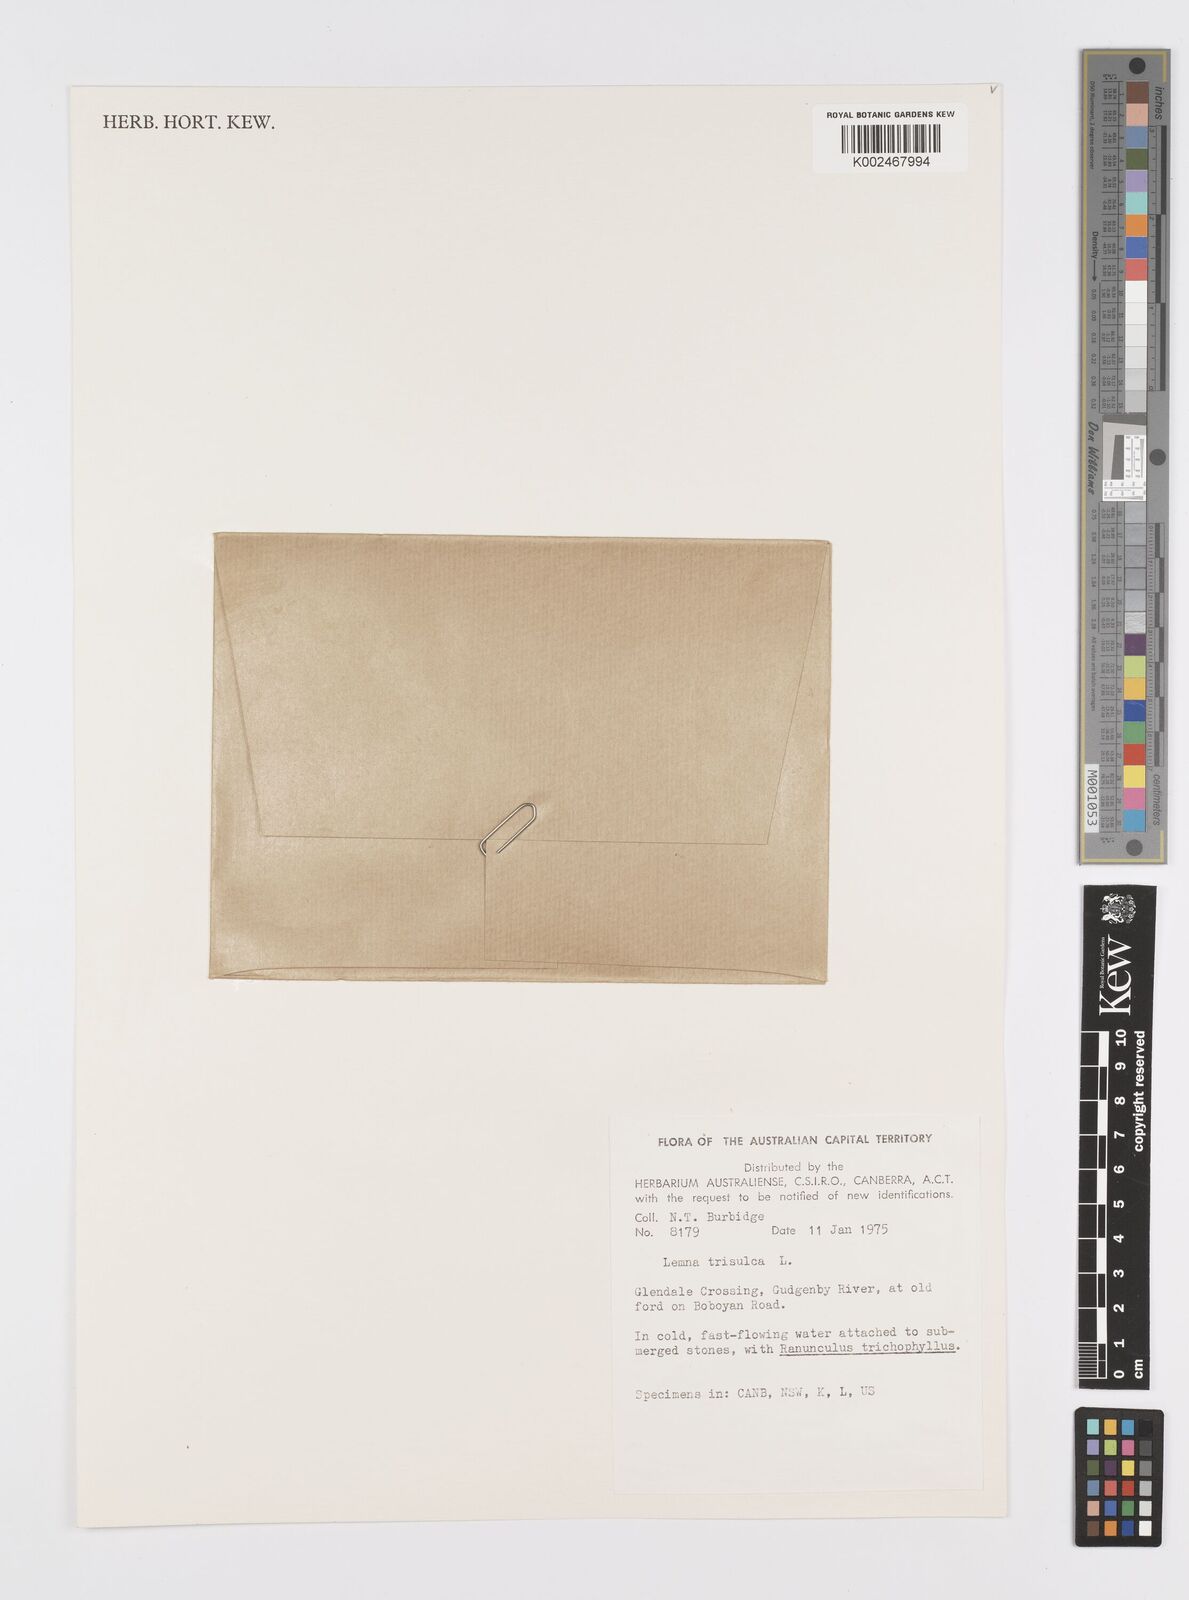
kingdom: Plantae
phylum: Tracheophyta
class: Liliopsida
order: Alismatales
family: Araceae
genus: Lemna
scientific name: Lemna trisulca
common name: Ivy-leaved duckweed
